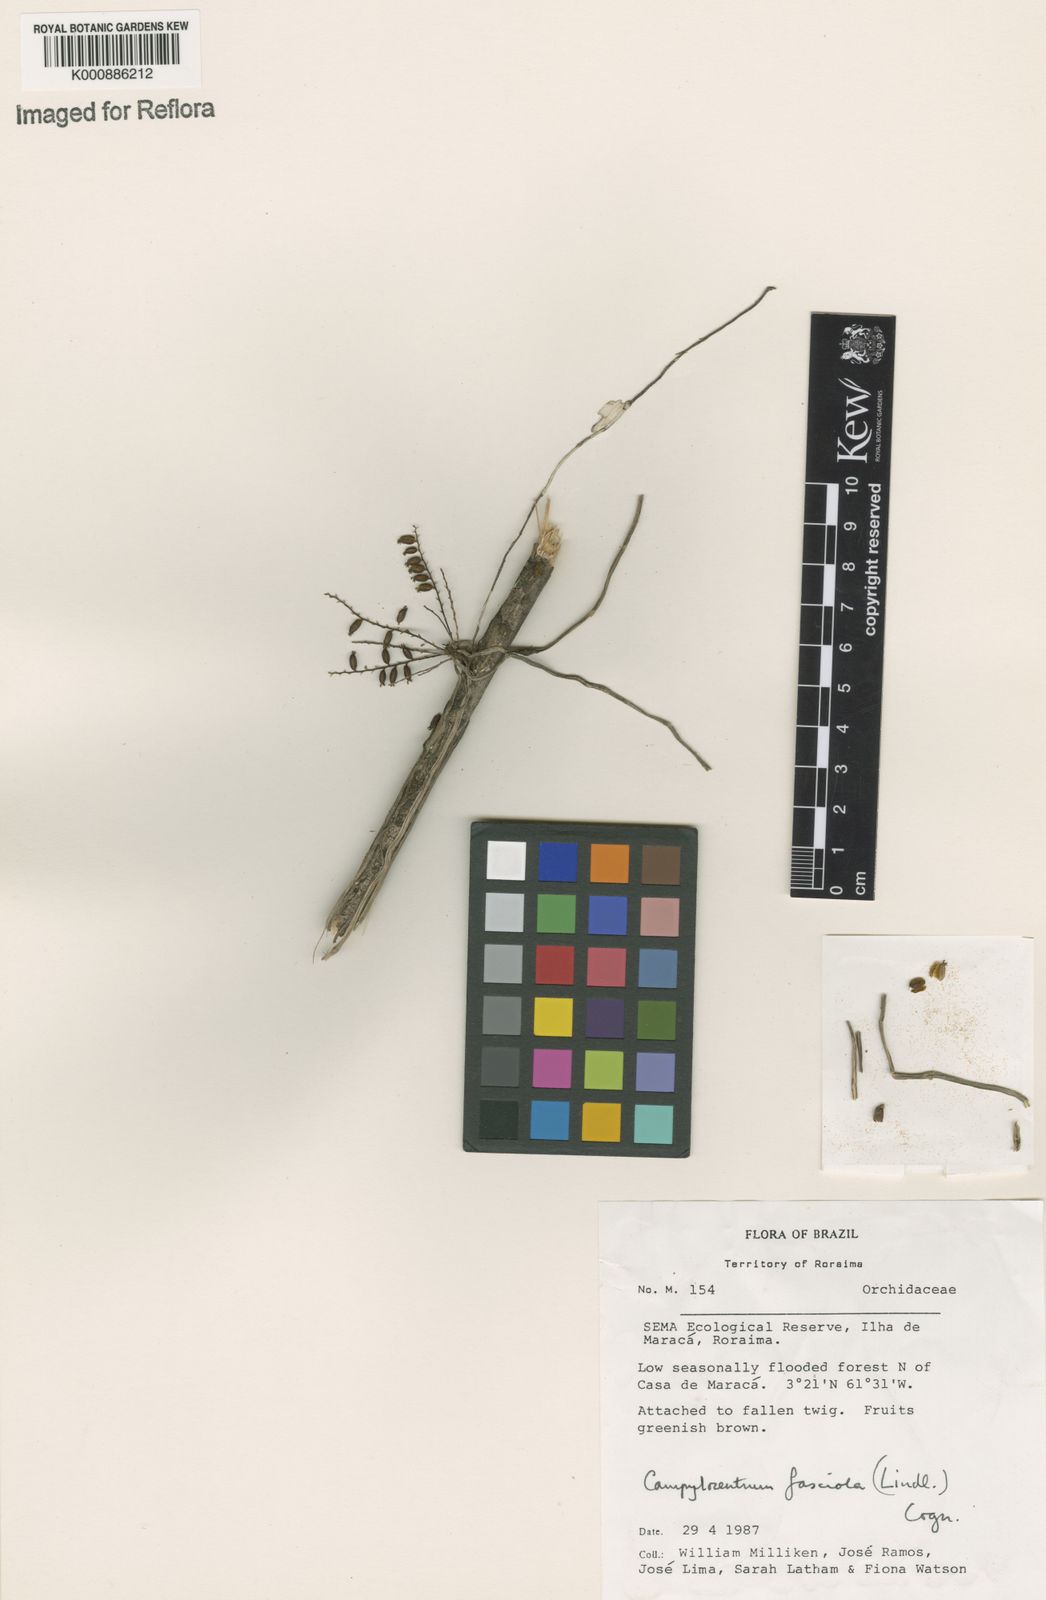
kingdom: Plantae
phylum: Tracheophyta
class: Liliopsida
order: Asparagales
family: Orchidaceae
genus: Campylocentrum
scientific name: Campylocentrum fasciola
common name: Arboreal bentspur orchid
